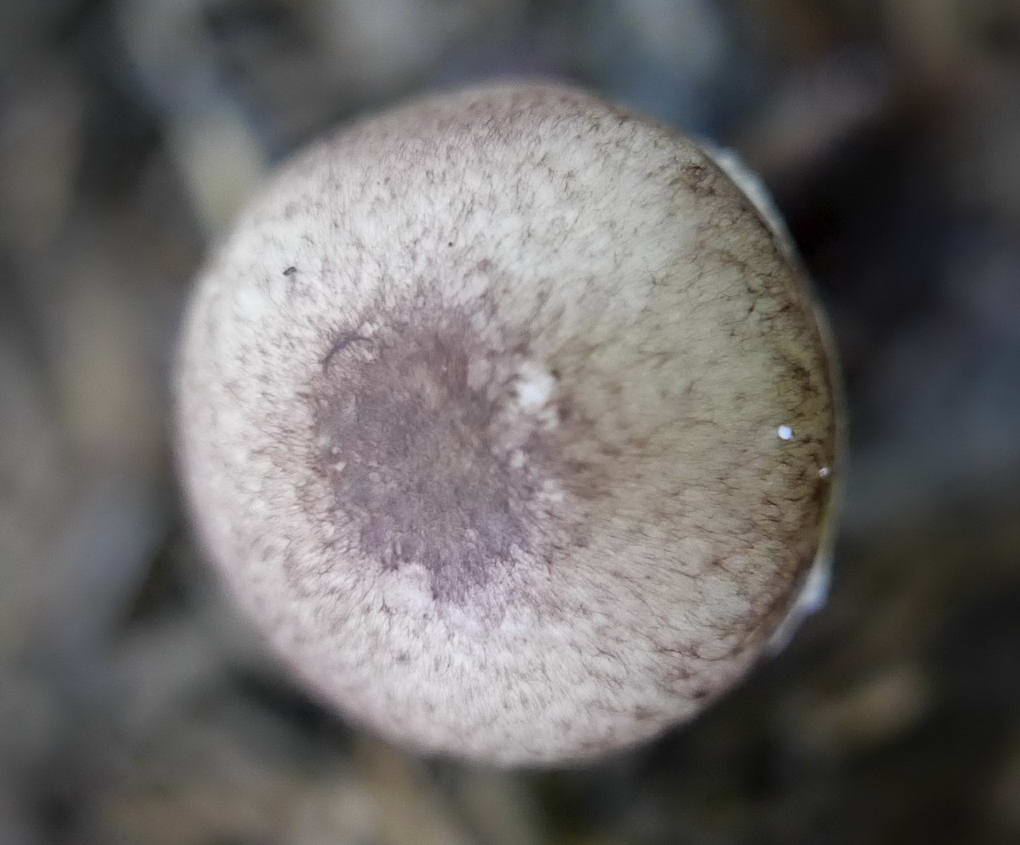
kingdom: Fungi
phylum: Basidiomycota
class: Agaricomycetes
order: Agaricales
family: Agaricaceae
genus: Agaricus
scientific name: Agaricus dulcidulus
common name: blegrød champignon
